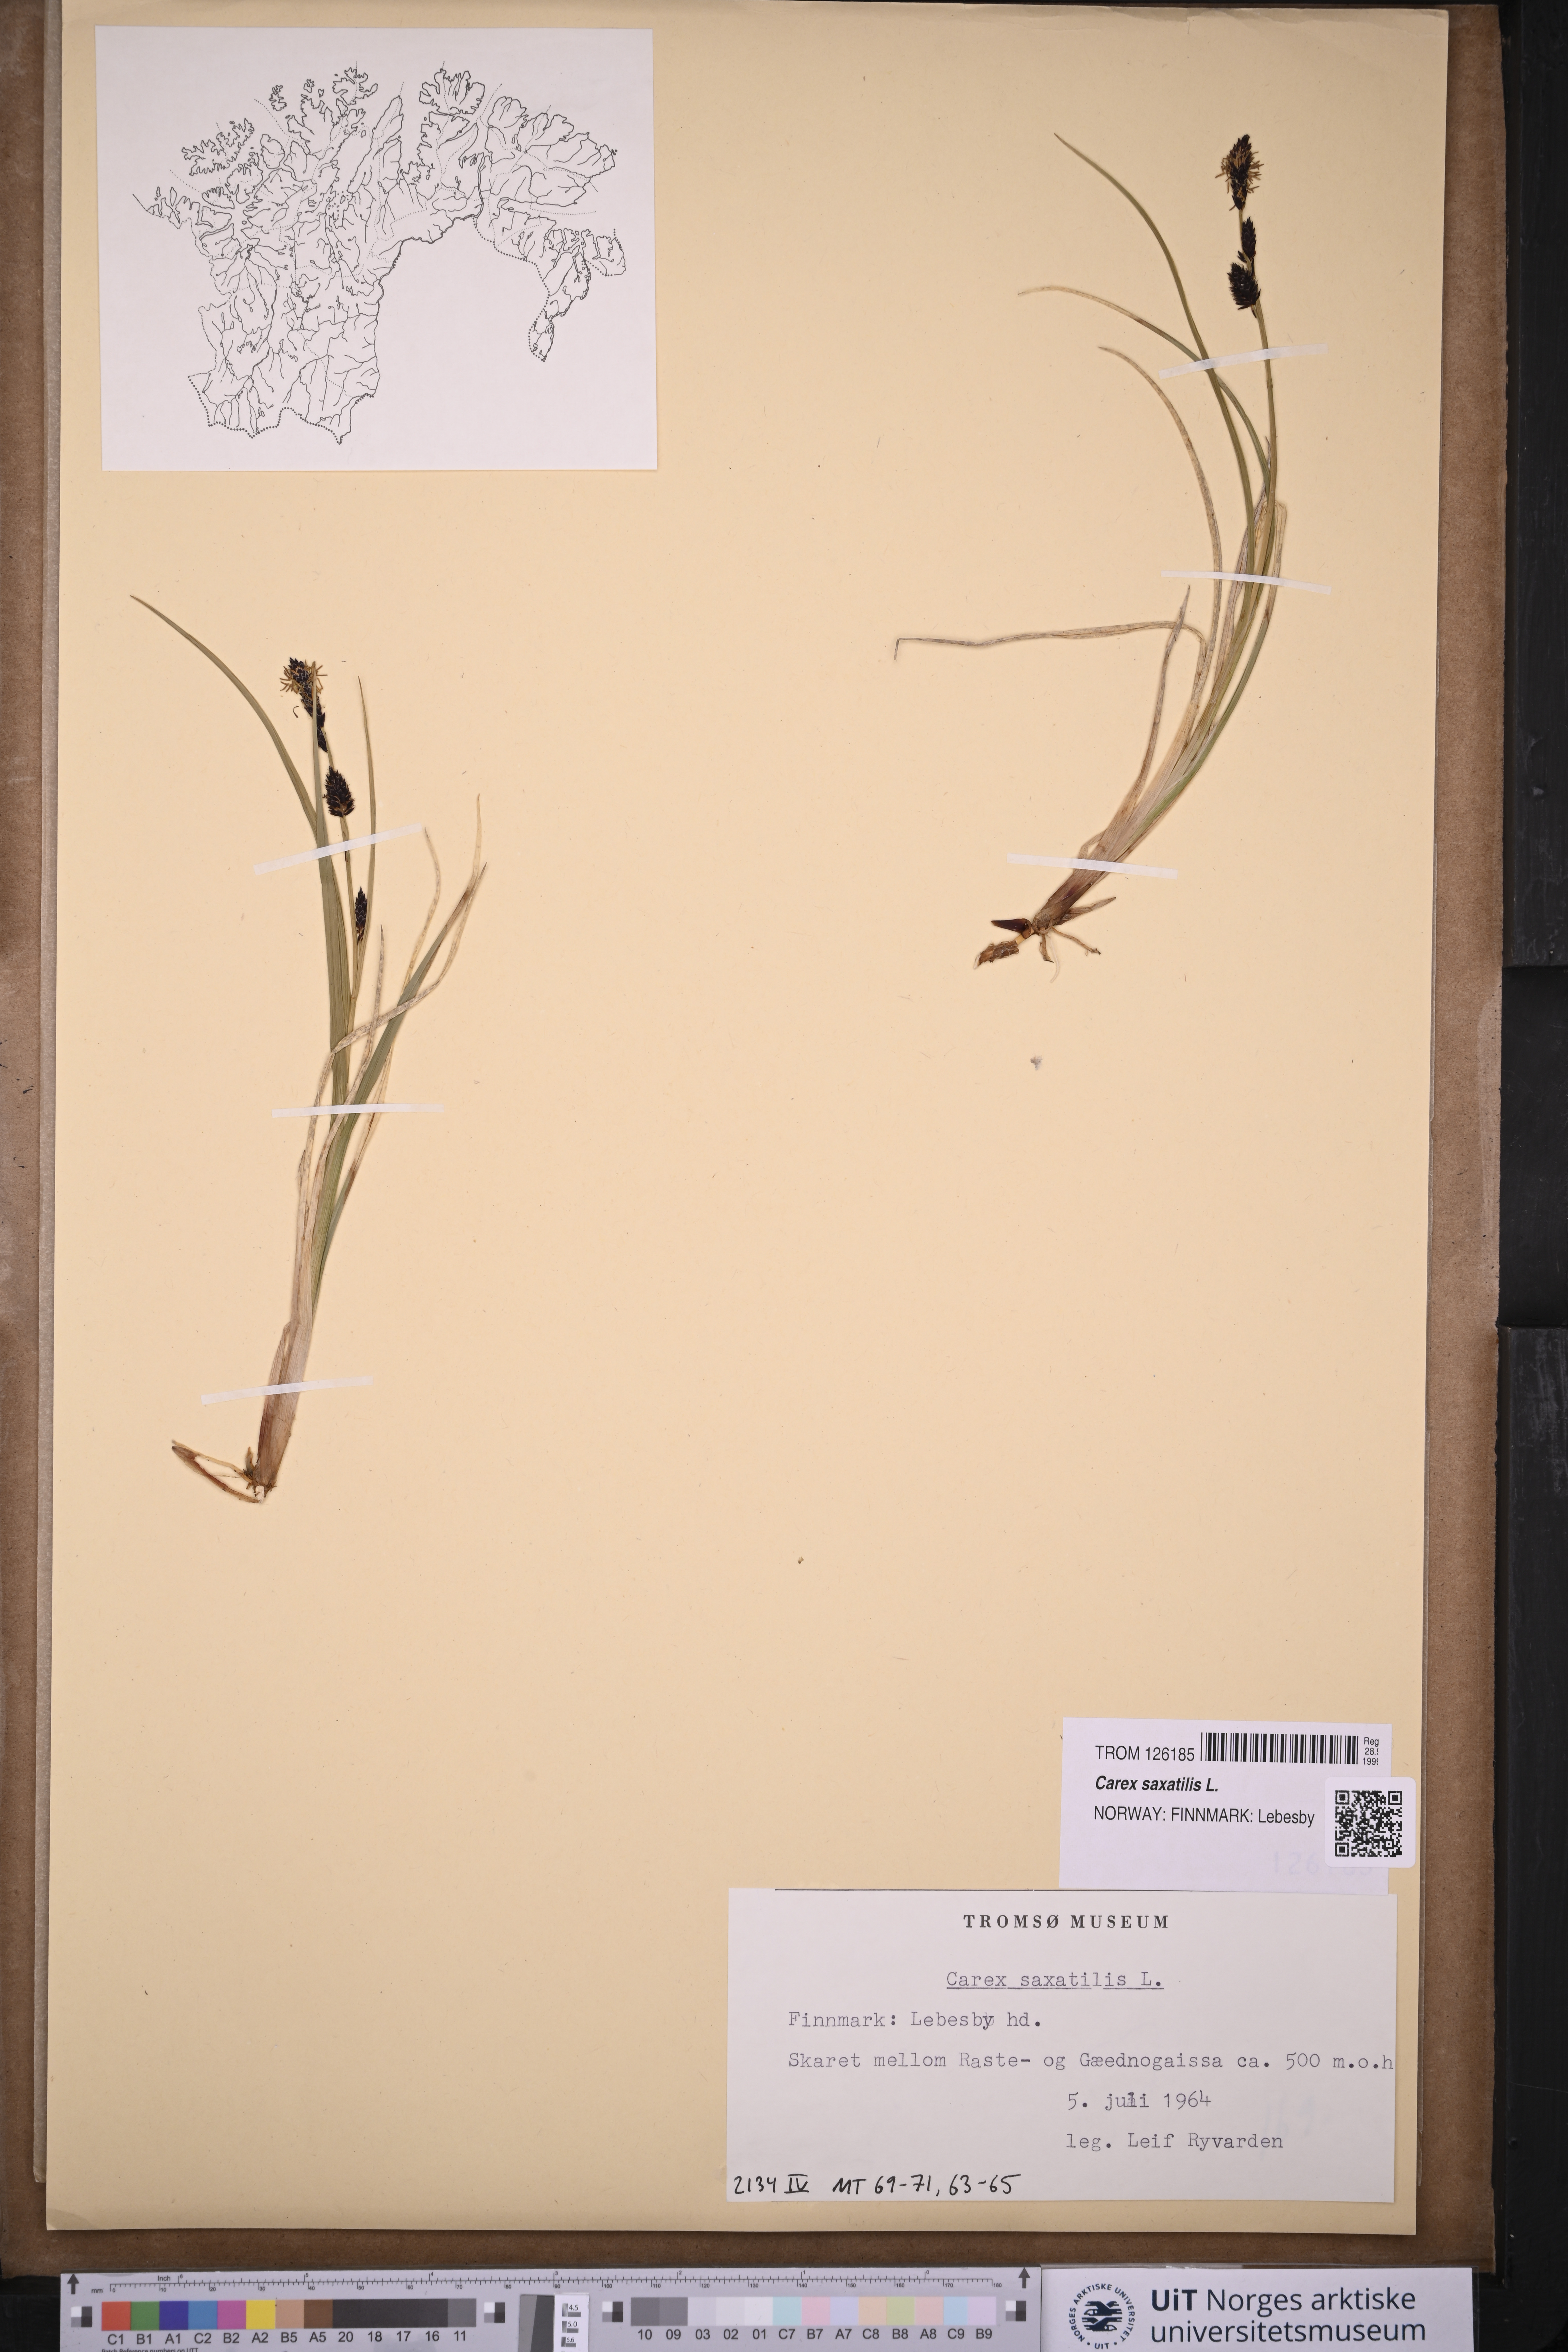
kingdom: Plantae
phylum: Tracheophyta
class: Liliopsida
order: Poales
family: Cyperaceae
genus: Carex
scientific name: Carex saxatilis
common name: Russet sedge
